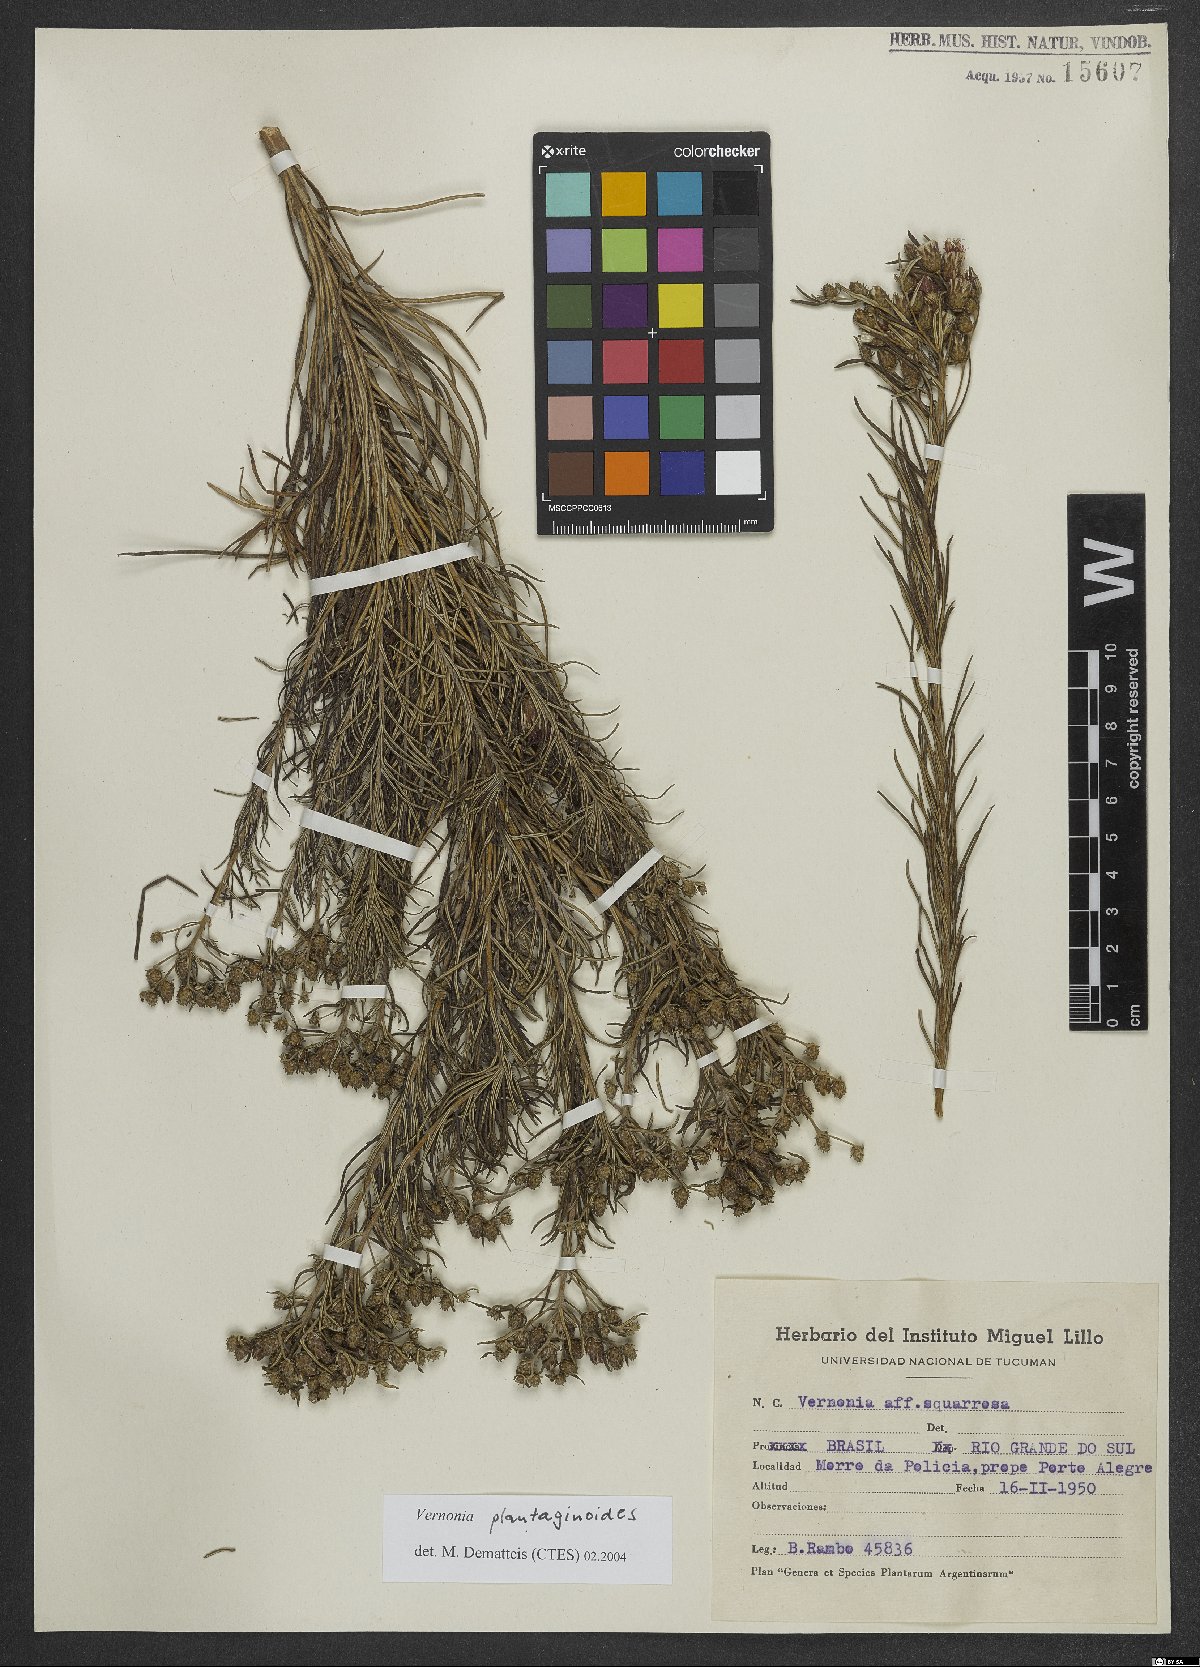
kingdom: Plantae
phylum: Tracheophyta
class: Magnoliopsida
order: Asterales
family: Asteraceae
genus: Lessingianthus
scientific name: Lessingianthus plantaginoides
